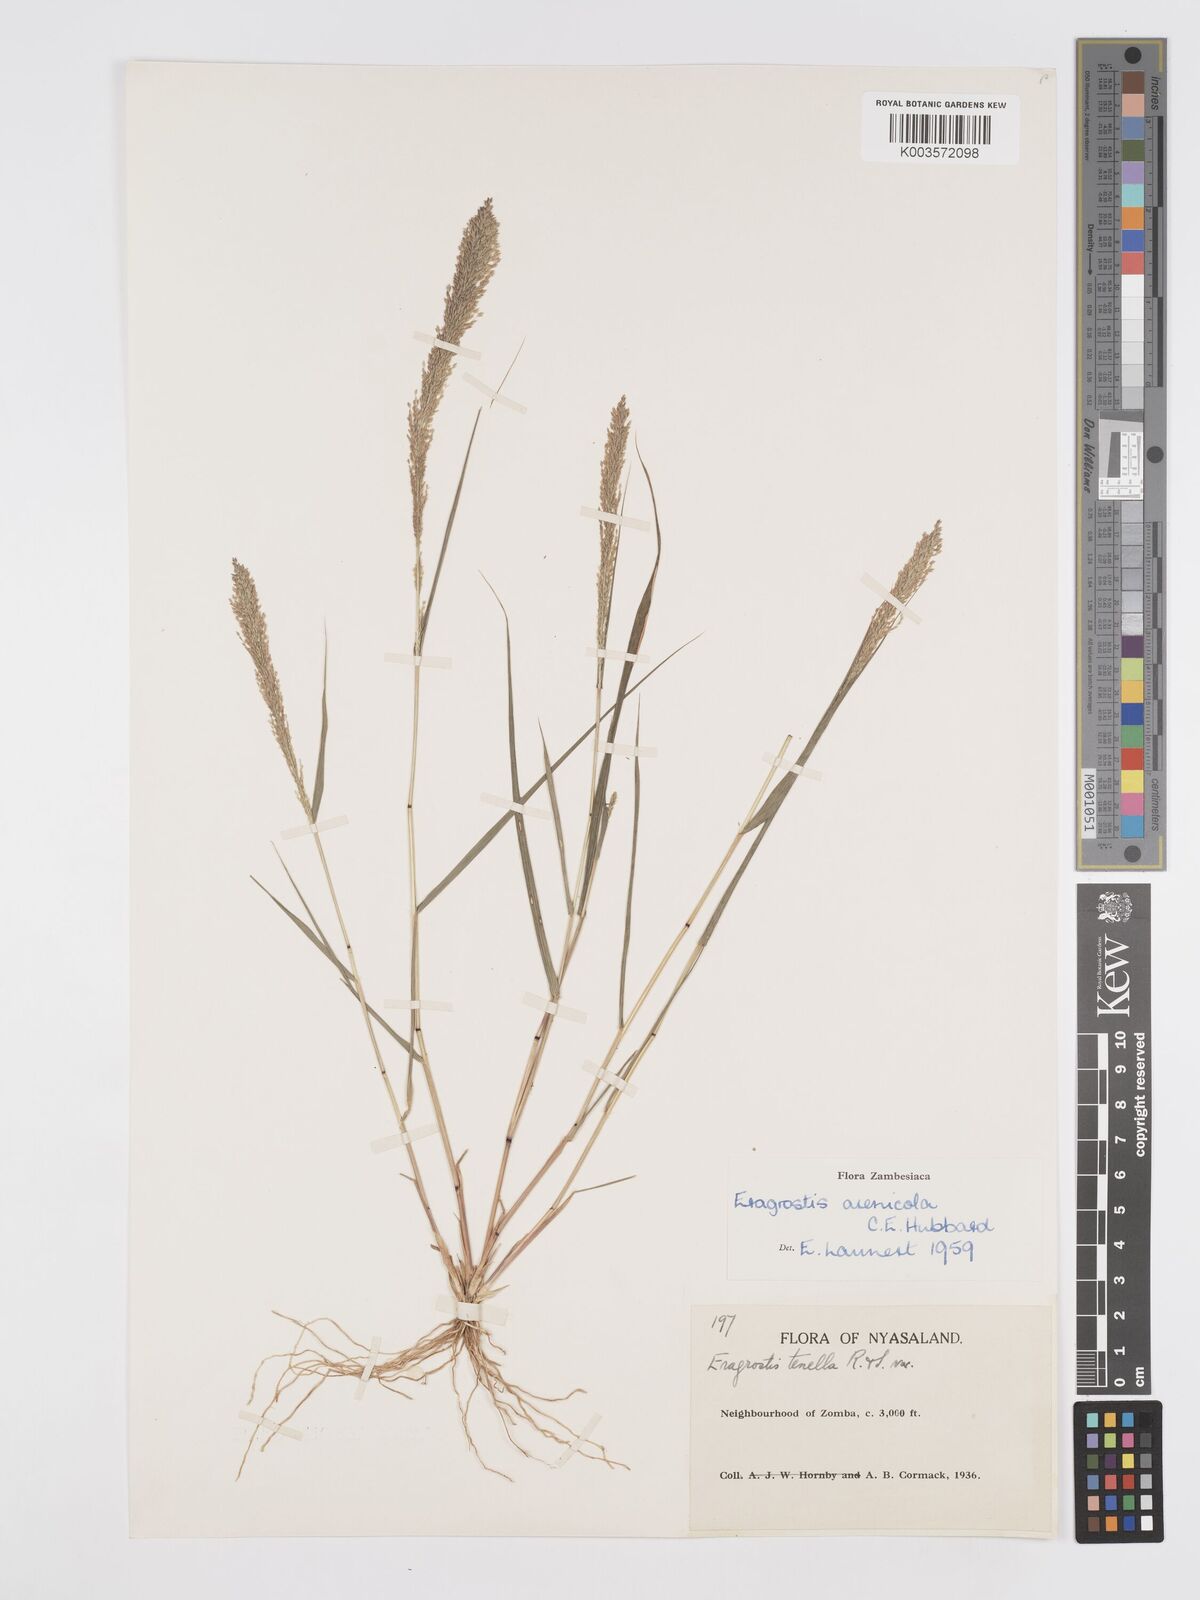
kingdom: Plantae
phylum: Tracheophyta
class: Liliopsida
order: Poales
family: Poaceae
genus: Eragrostis
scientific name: Eragrostis arenicola
